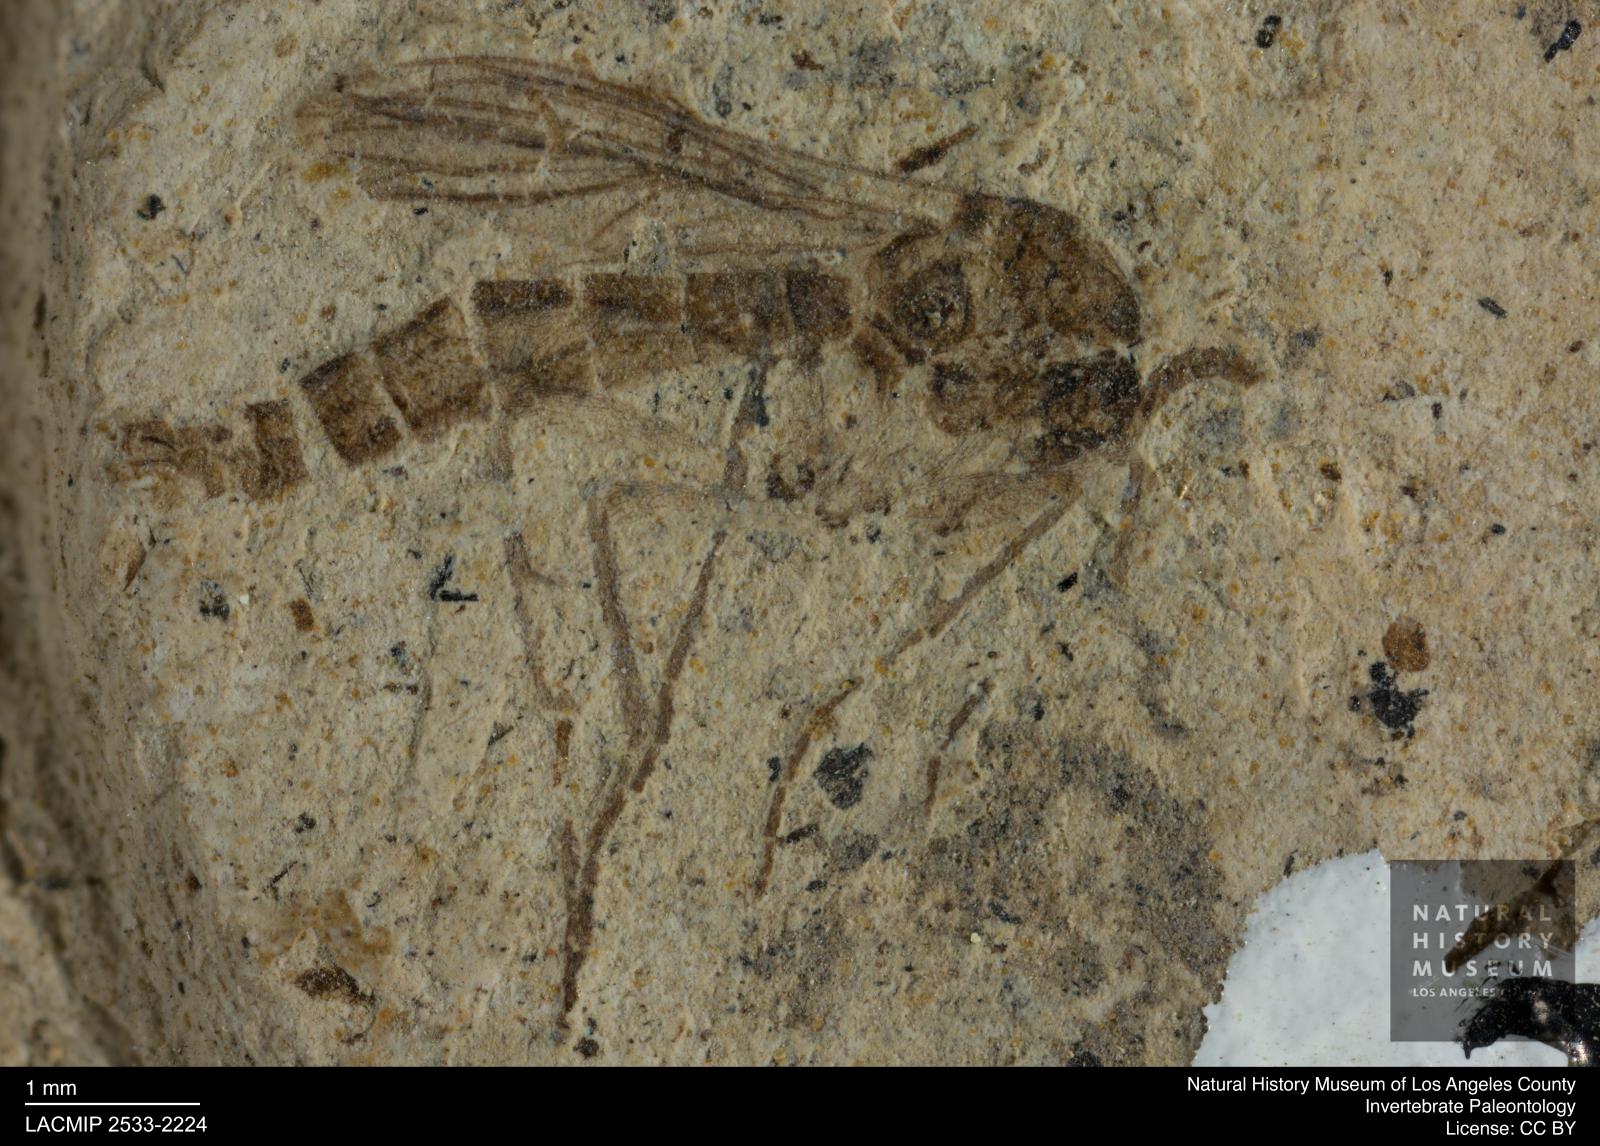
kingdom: Animalia
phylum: Arthropoda
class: Insecta
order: Diptera
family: Mycetophilidae
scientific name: Mycetophilidae
